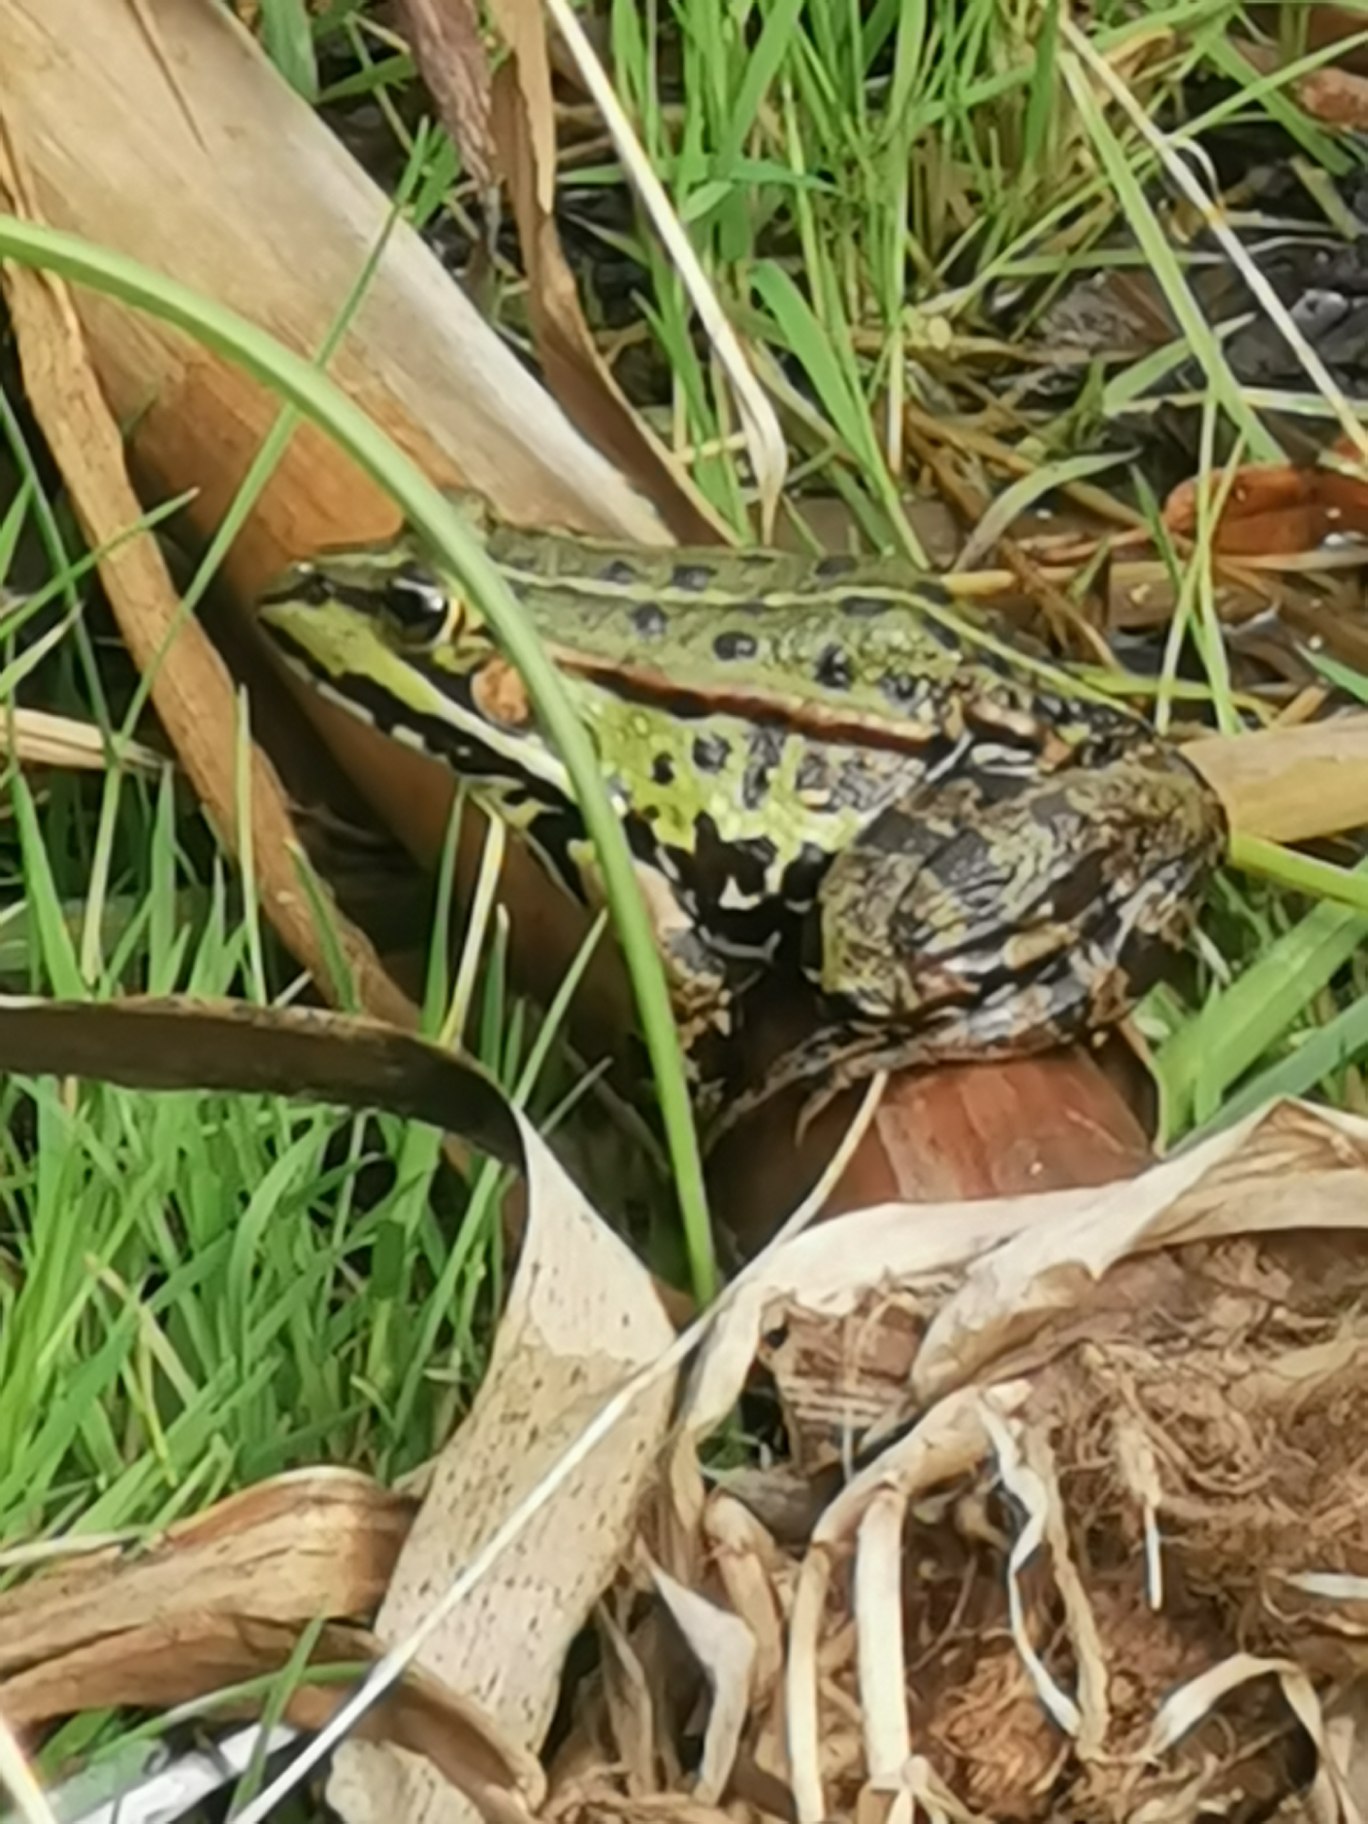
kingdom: Animalia
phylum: Chordata
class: Amphibia
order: Anura
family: Ranidae
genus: Pelophylax
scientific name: Pelophylax lessonae
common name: Grøn frø
